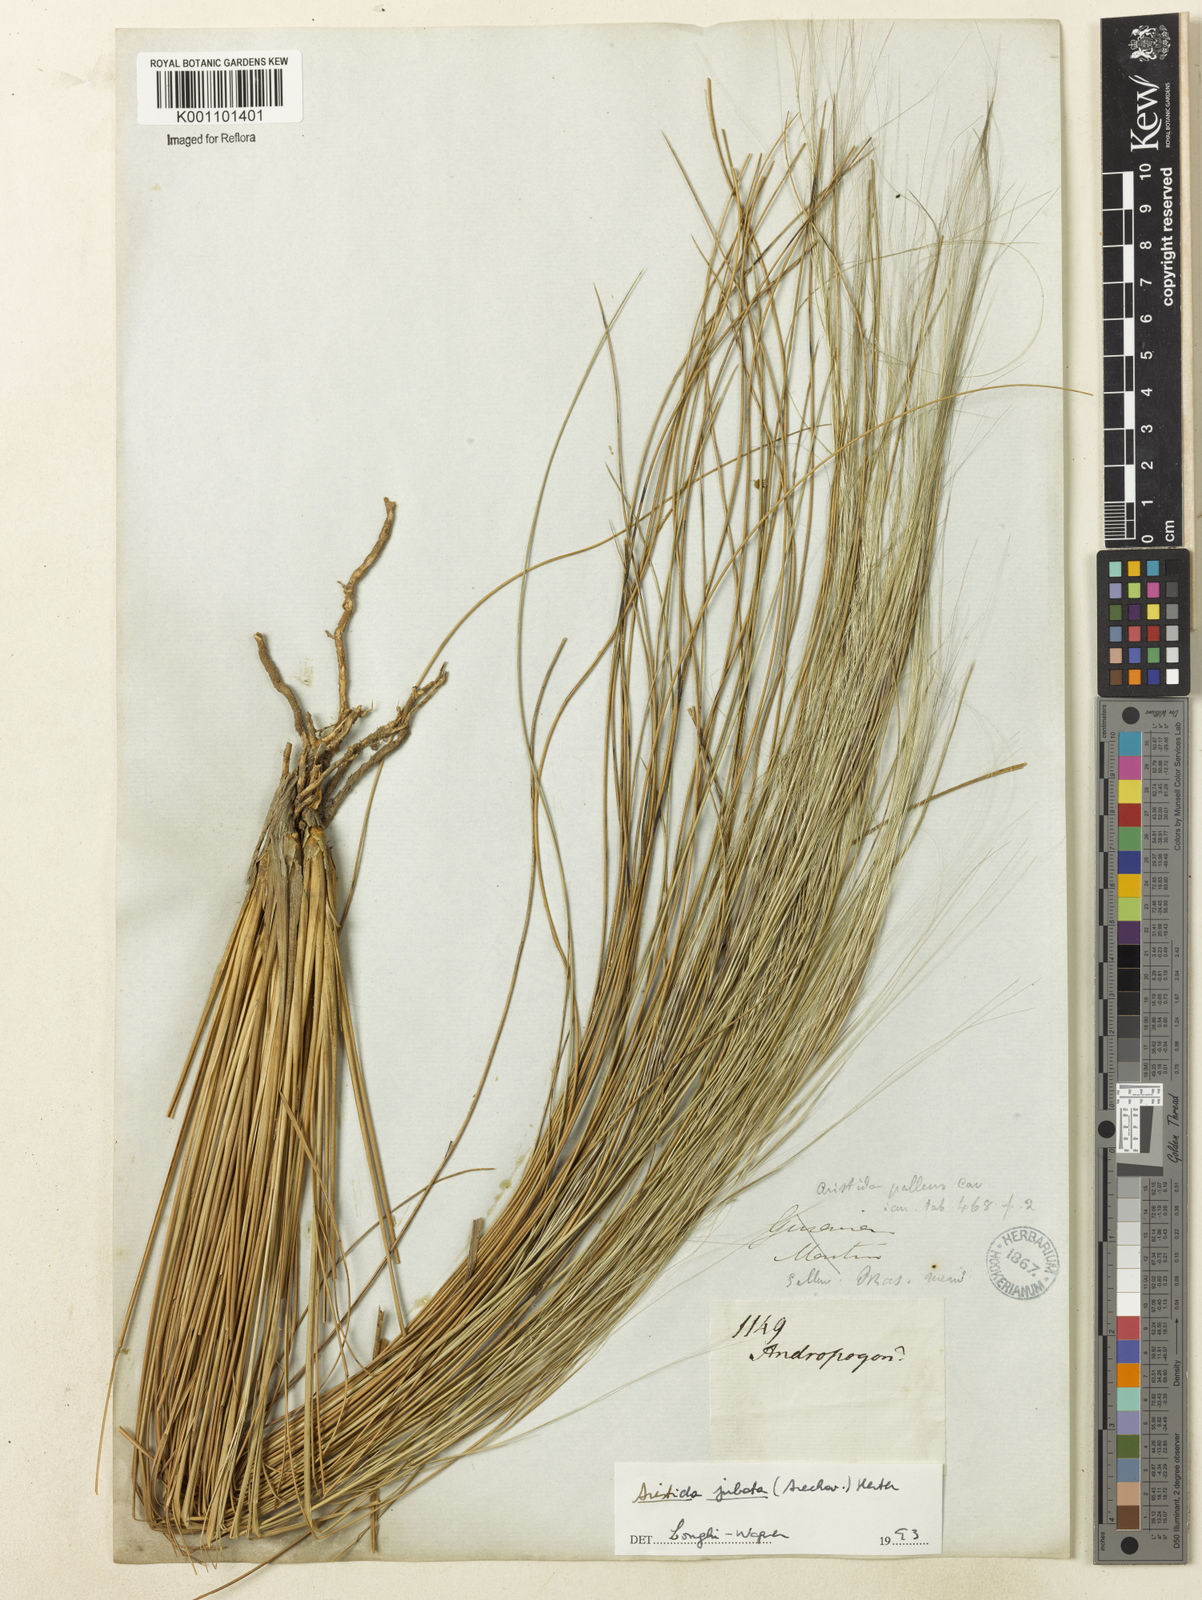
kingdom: Plantae
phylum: Tracheophyta
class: Liliopsida
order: Poales
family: Poaceae
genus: Aristida
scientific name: Aristida jubata
